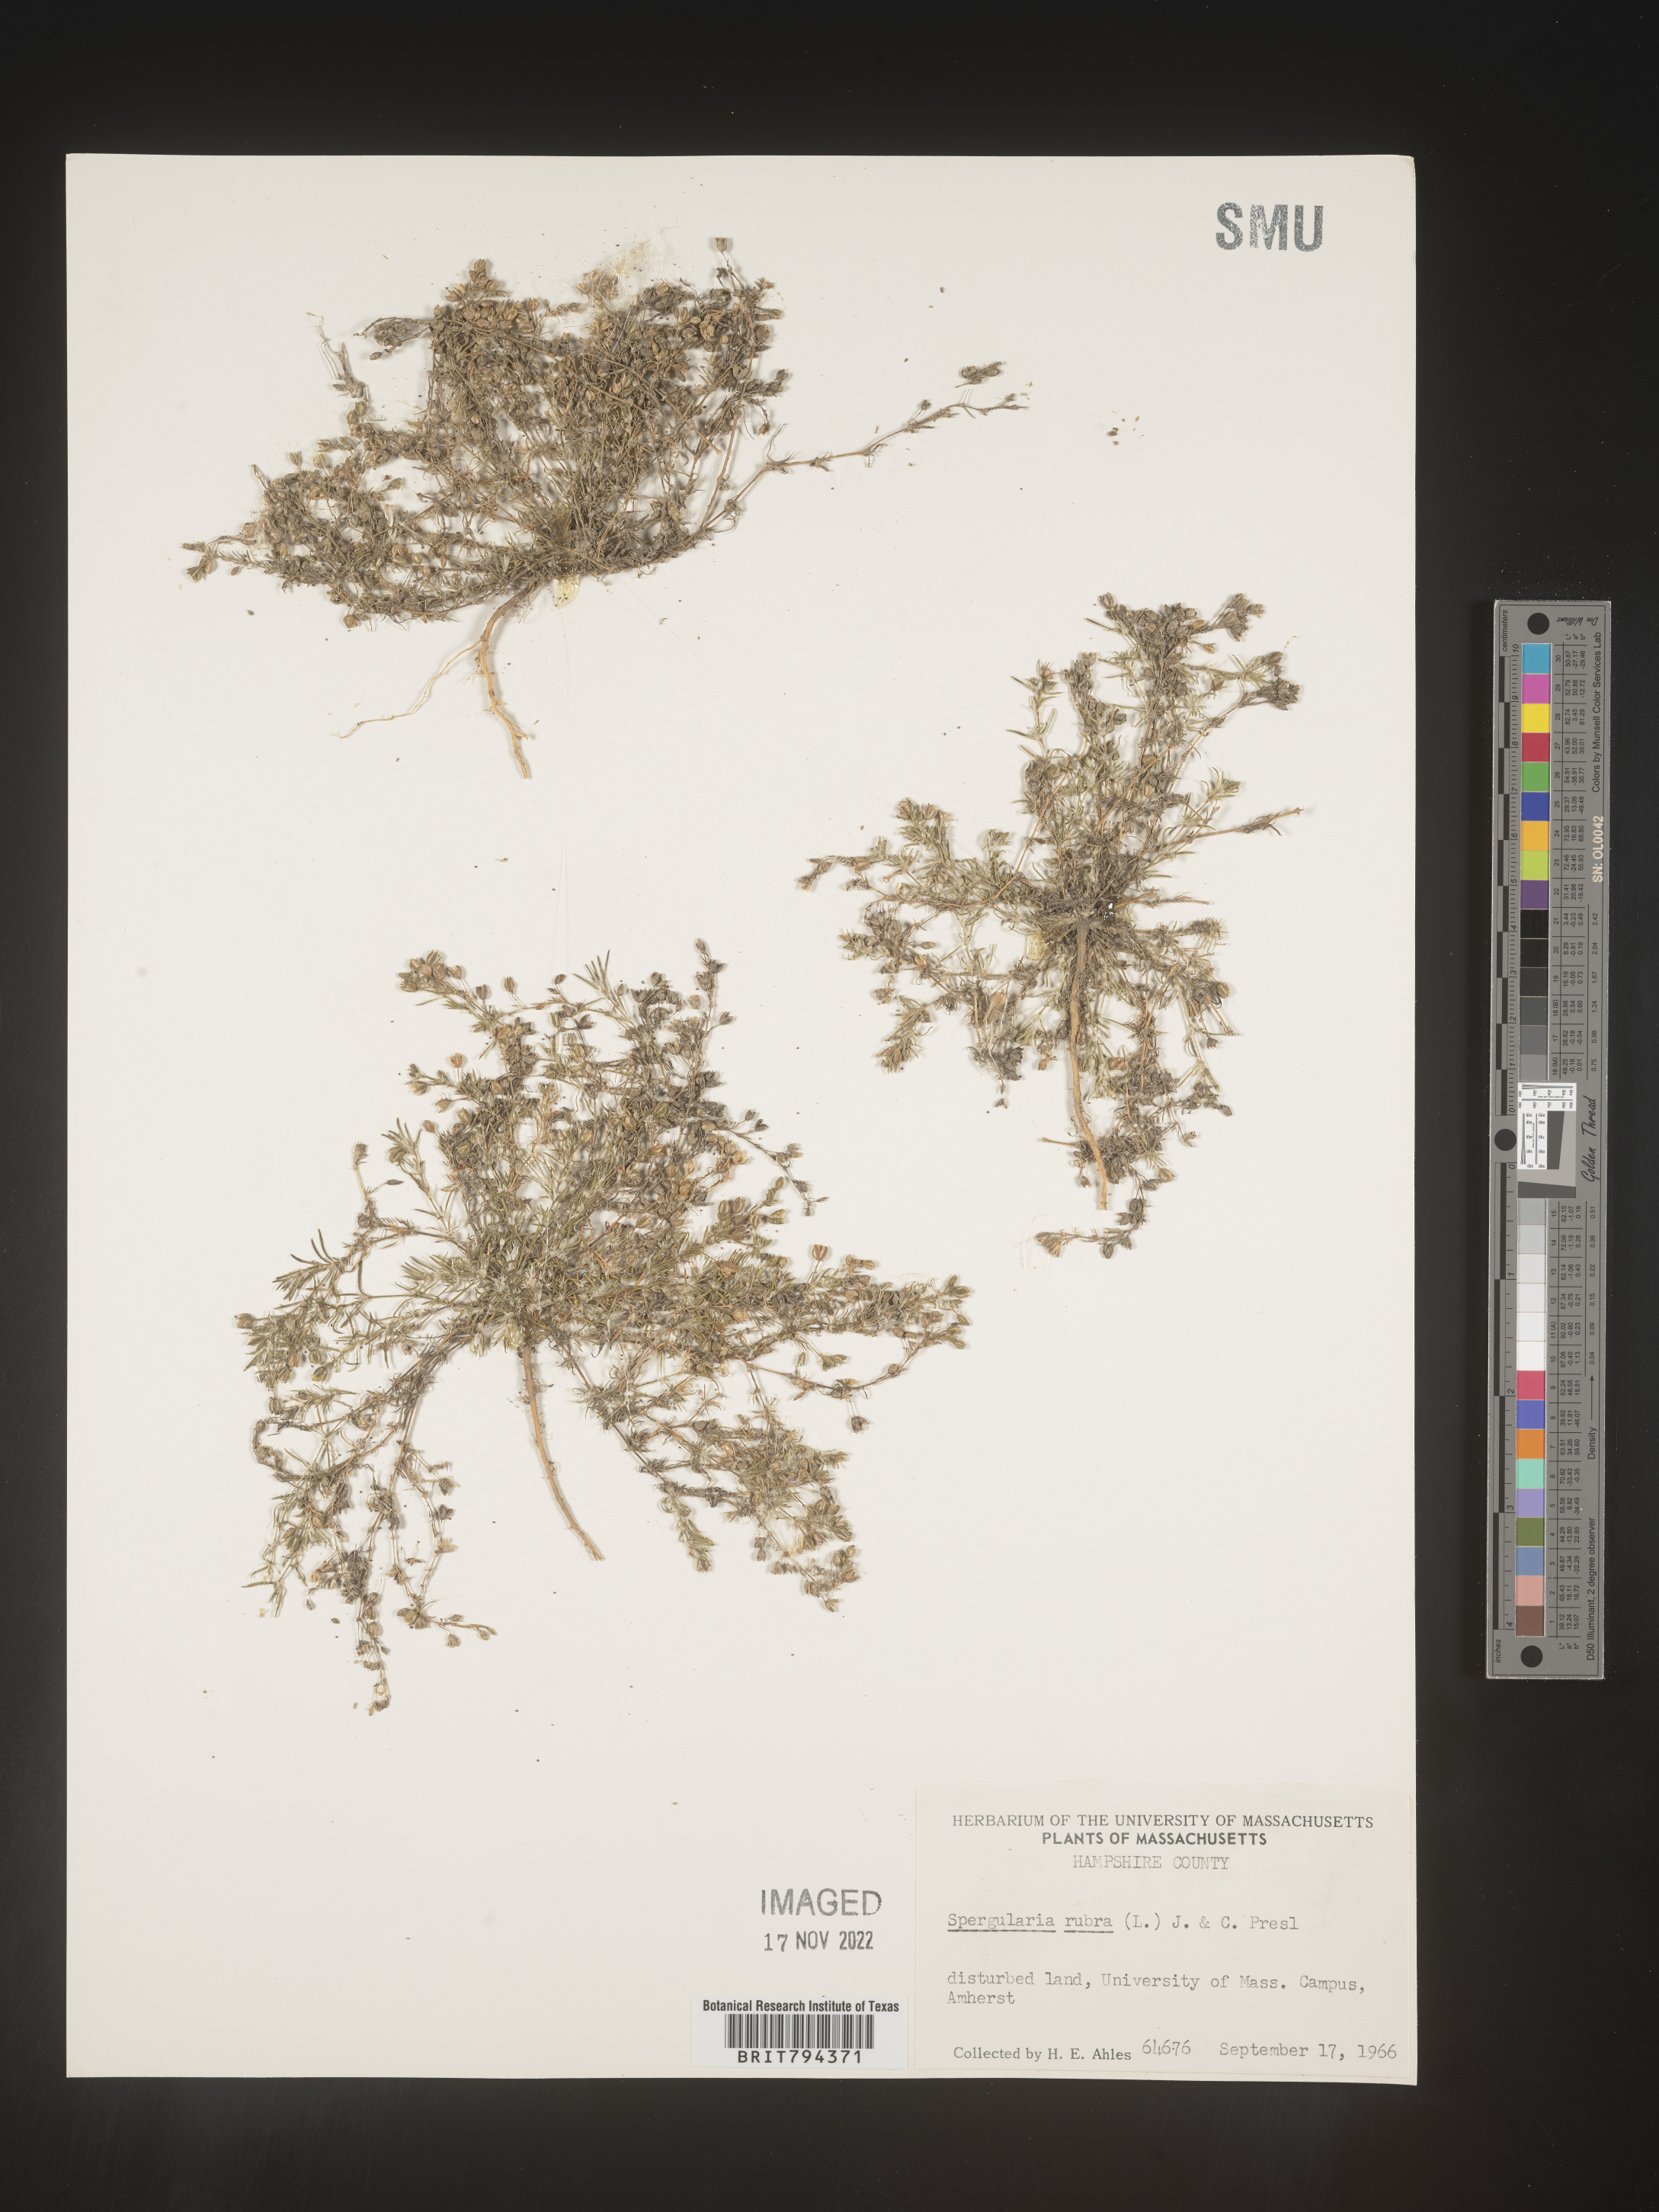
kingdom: Plantae
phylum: Tracheophyta
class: Magnoliopsida
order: Caryophyllales
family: Caryophyllaceae
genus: Spergularia
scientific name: Spergularia rubra
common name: Red sand-spurrey
